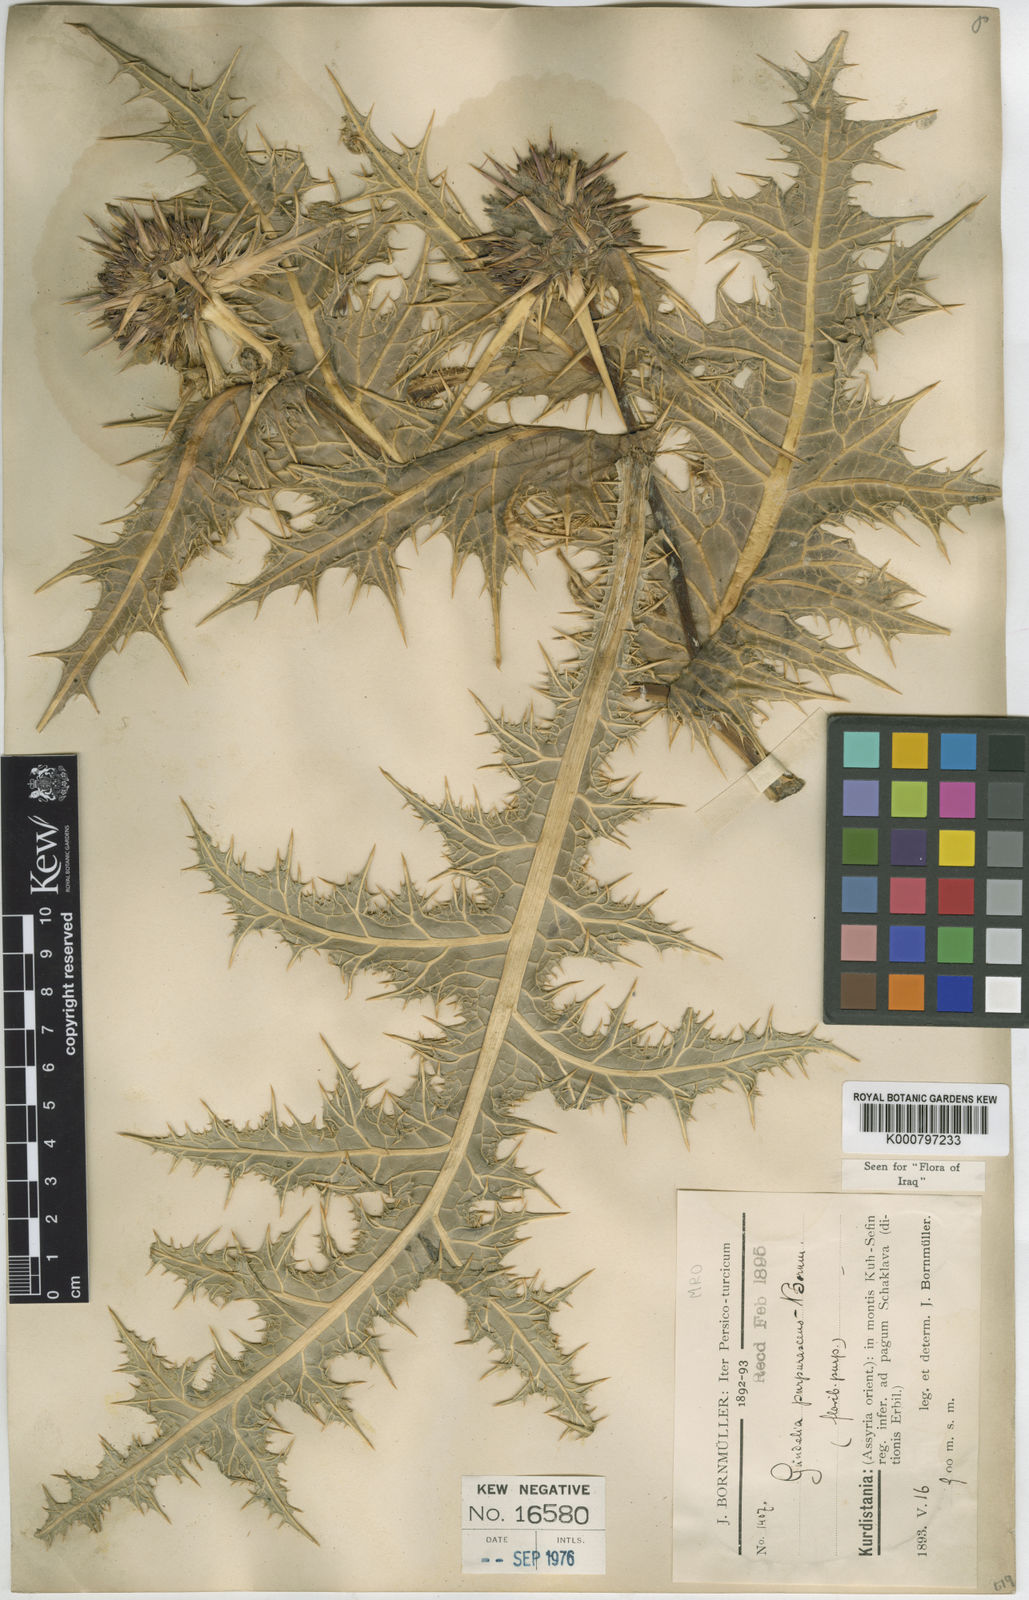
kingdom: Plantae
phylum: Tracheophyta
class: Magnoliopsida
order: Asterales
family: Asteraceae
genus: Gundelia
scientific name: Gundelia tournefortii
